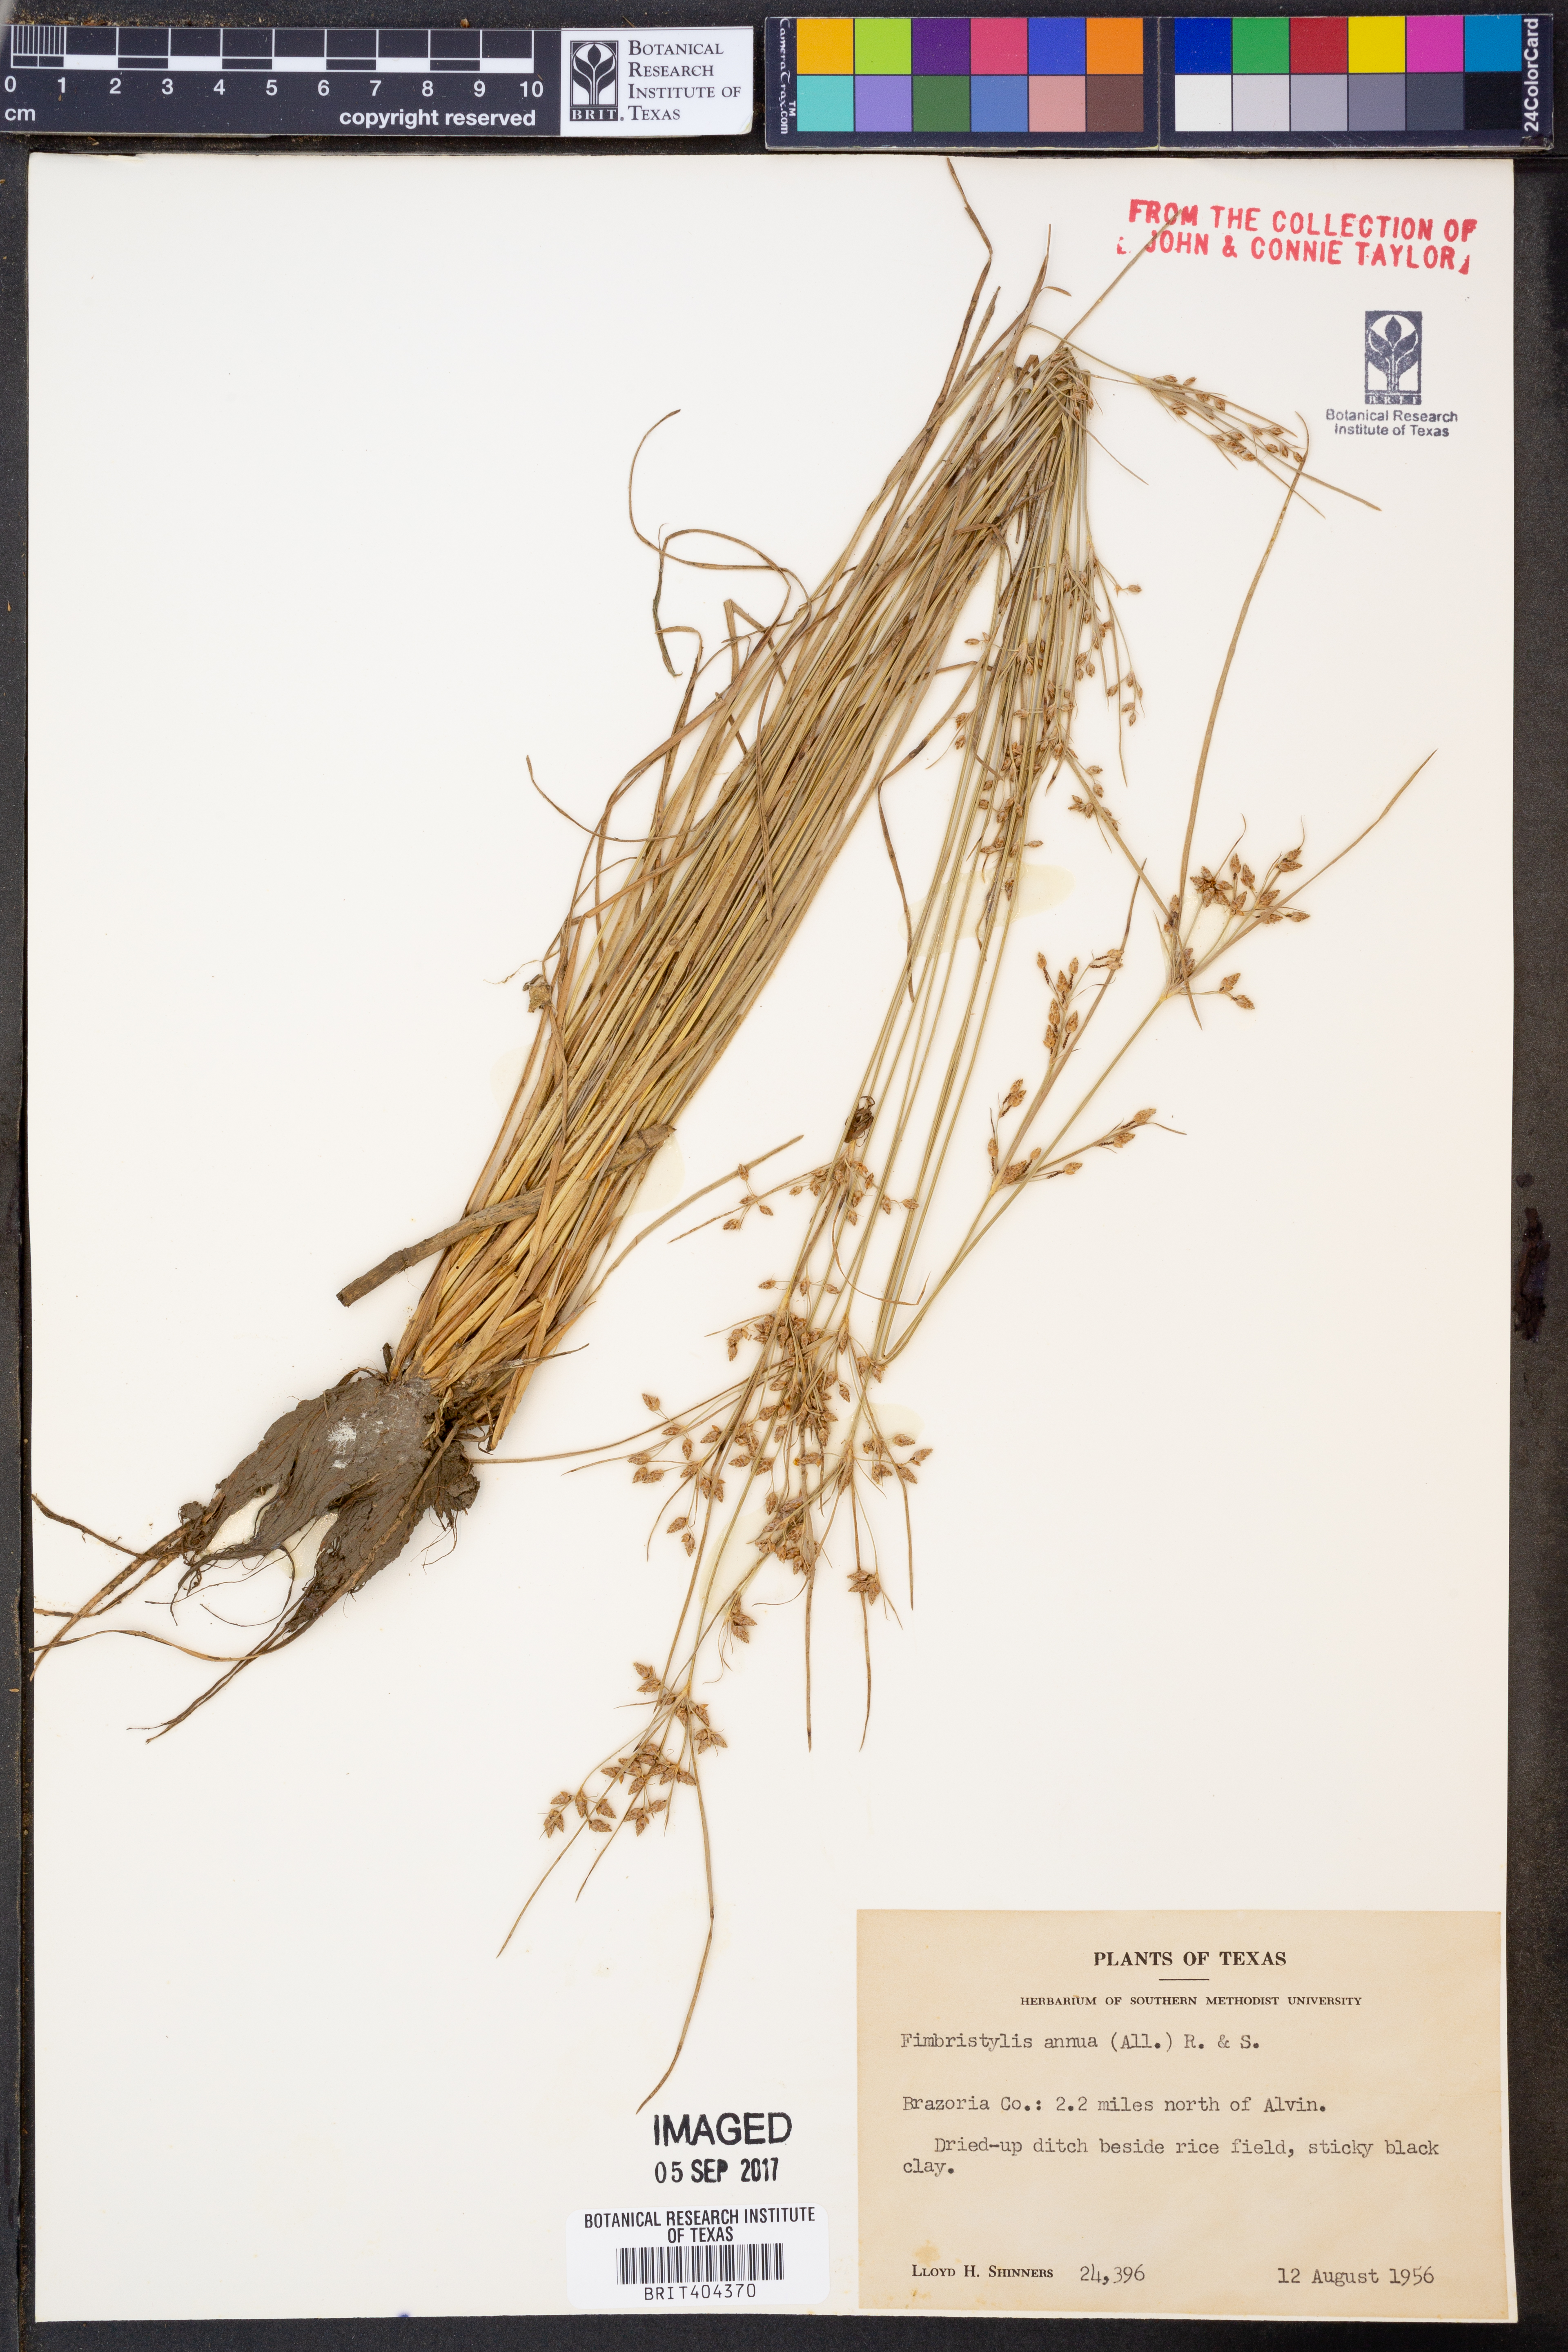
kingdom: Plantae
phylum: Tracheophyta
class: Liliopsida
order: Poales
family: Cyperaceae
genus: Fimbristylis
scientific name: Fimbristylis dichotoma
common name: Forked fimbry
